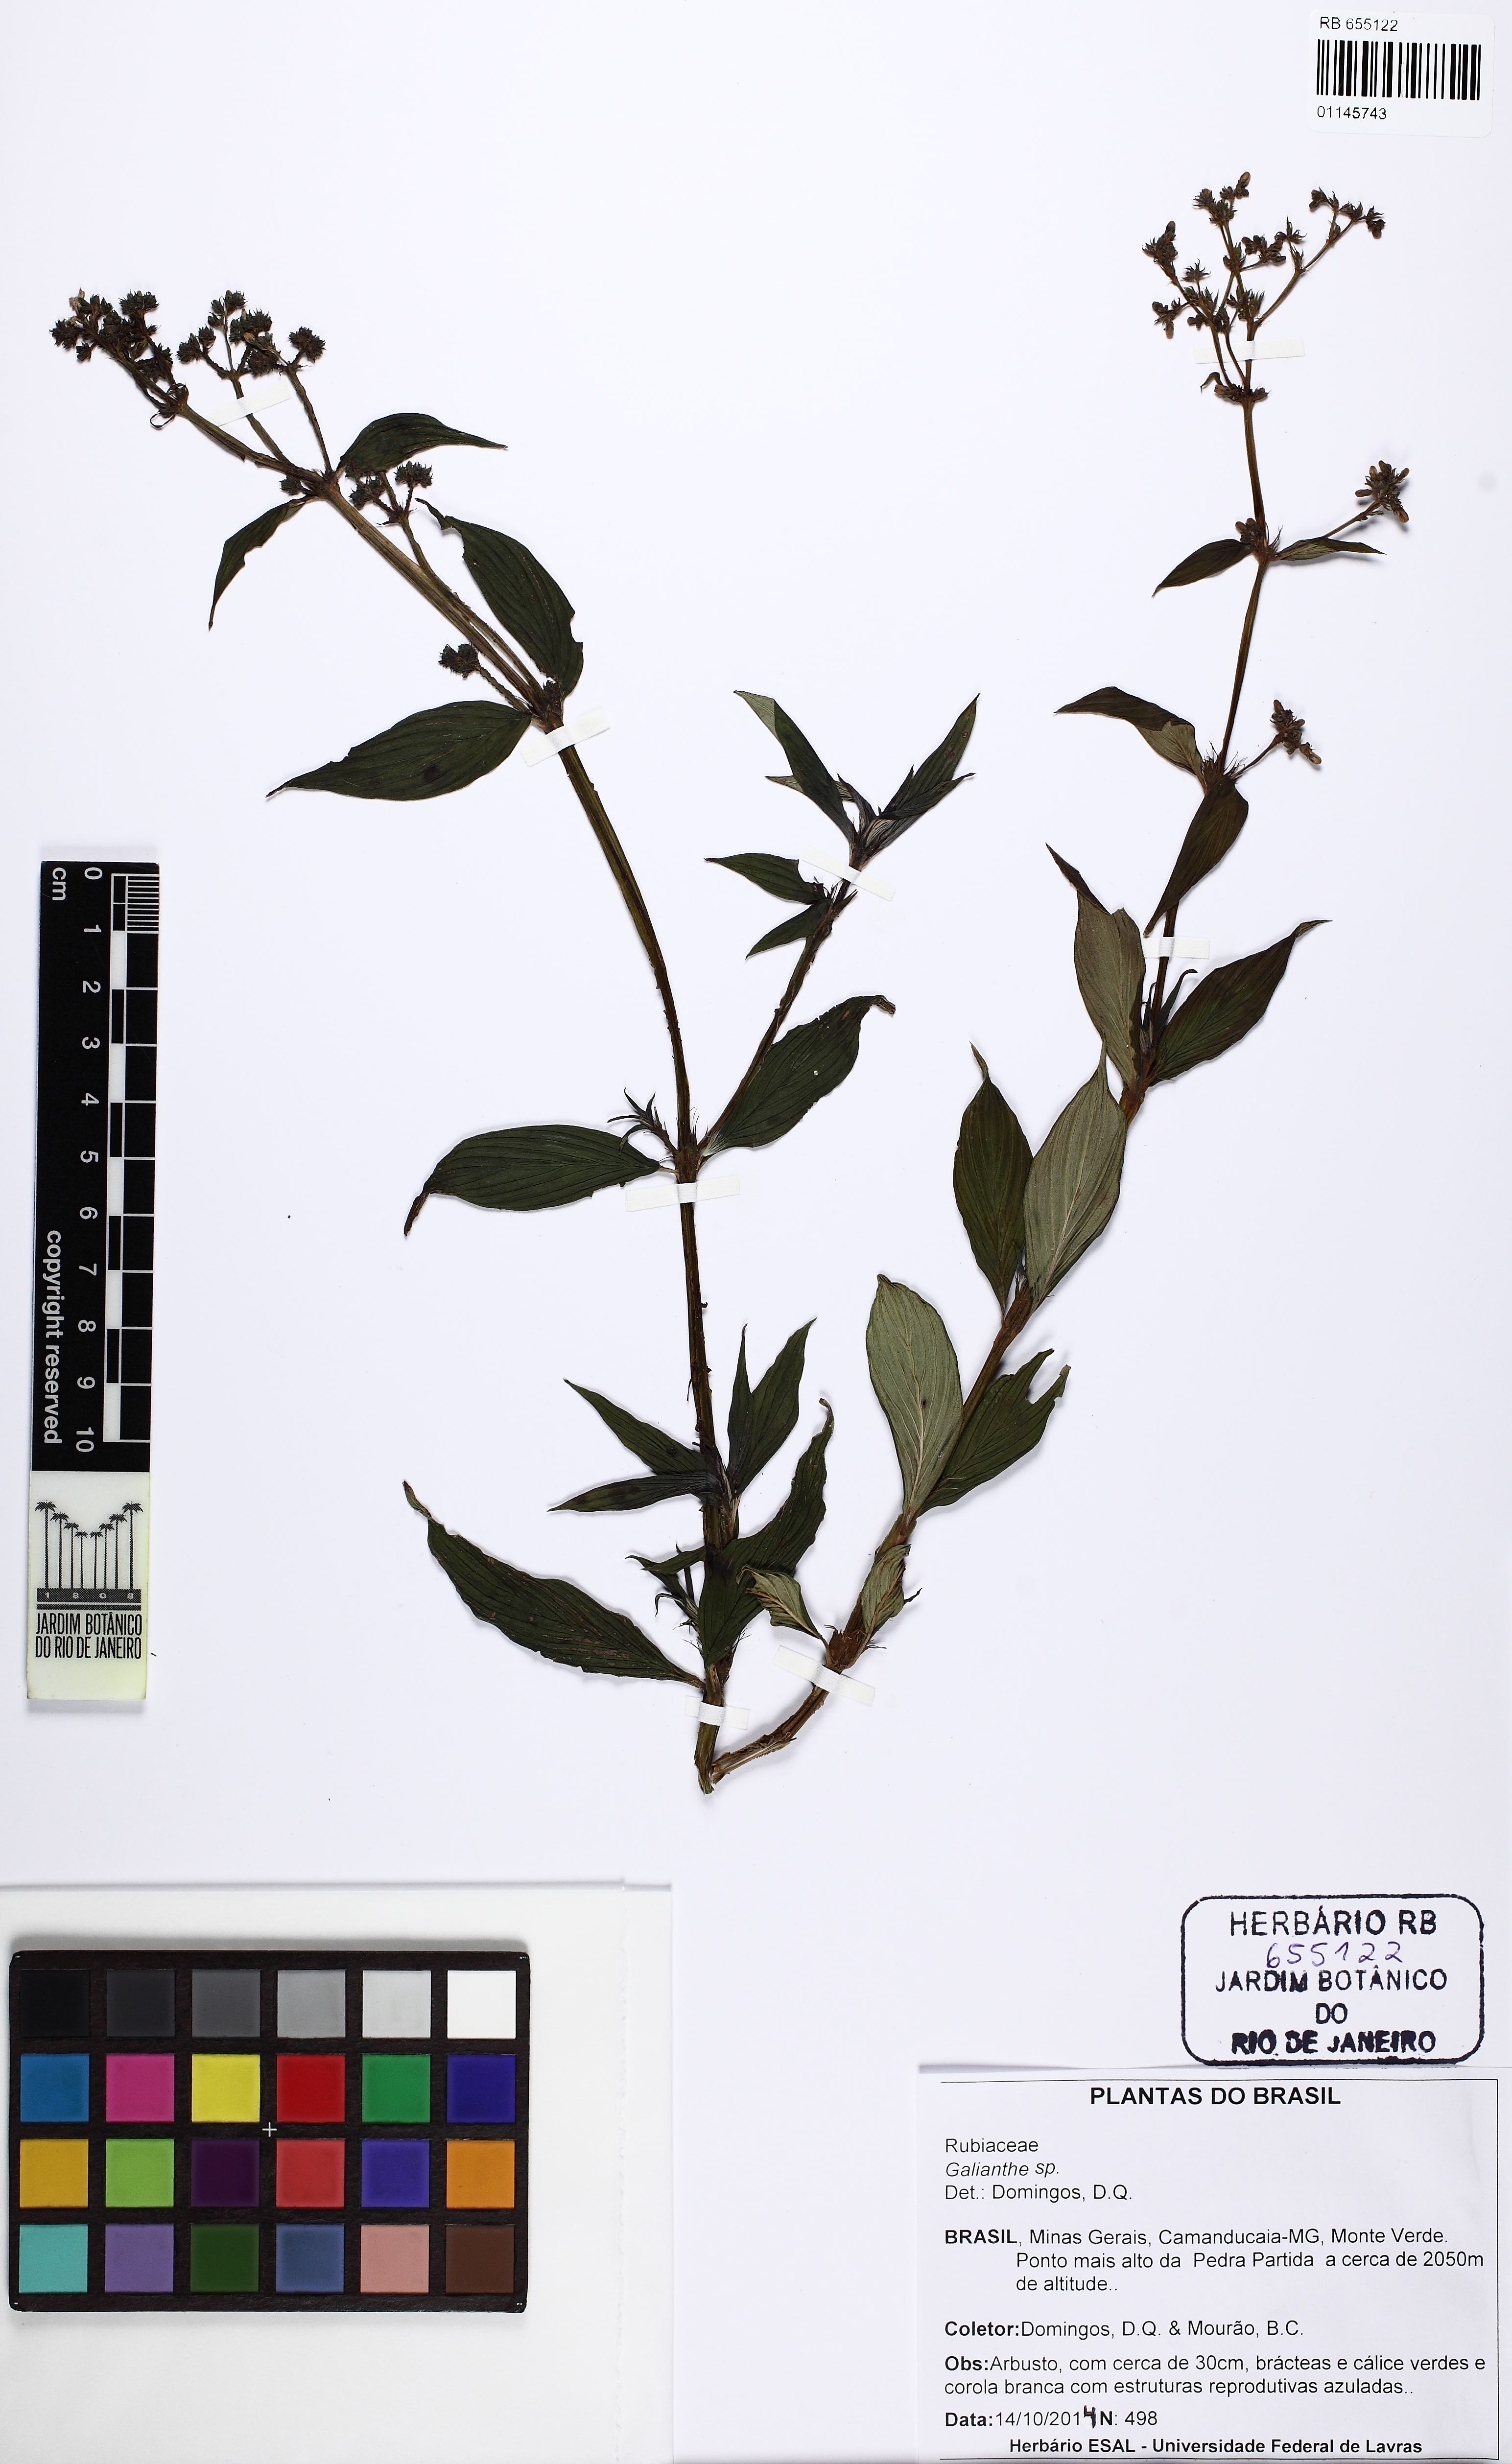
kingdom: Plantae
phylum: Tracheophyta
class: Magnoliopsida
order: Gentianales
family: Rubiaceae
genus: Galianthe
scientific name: Galianthe vaginata
